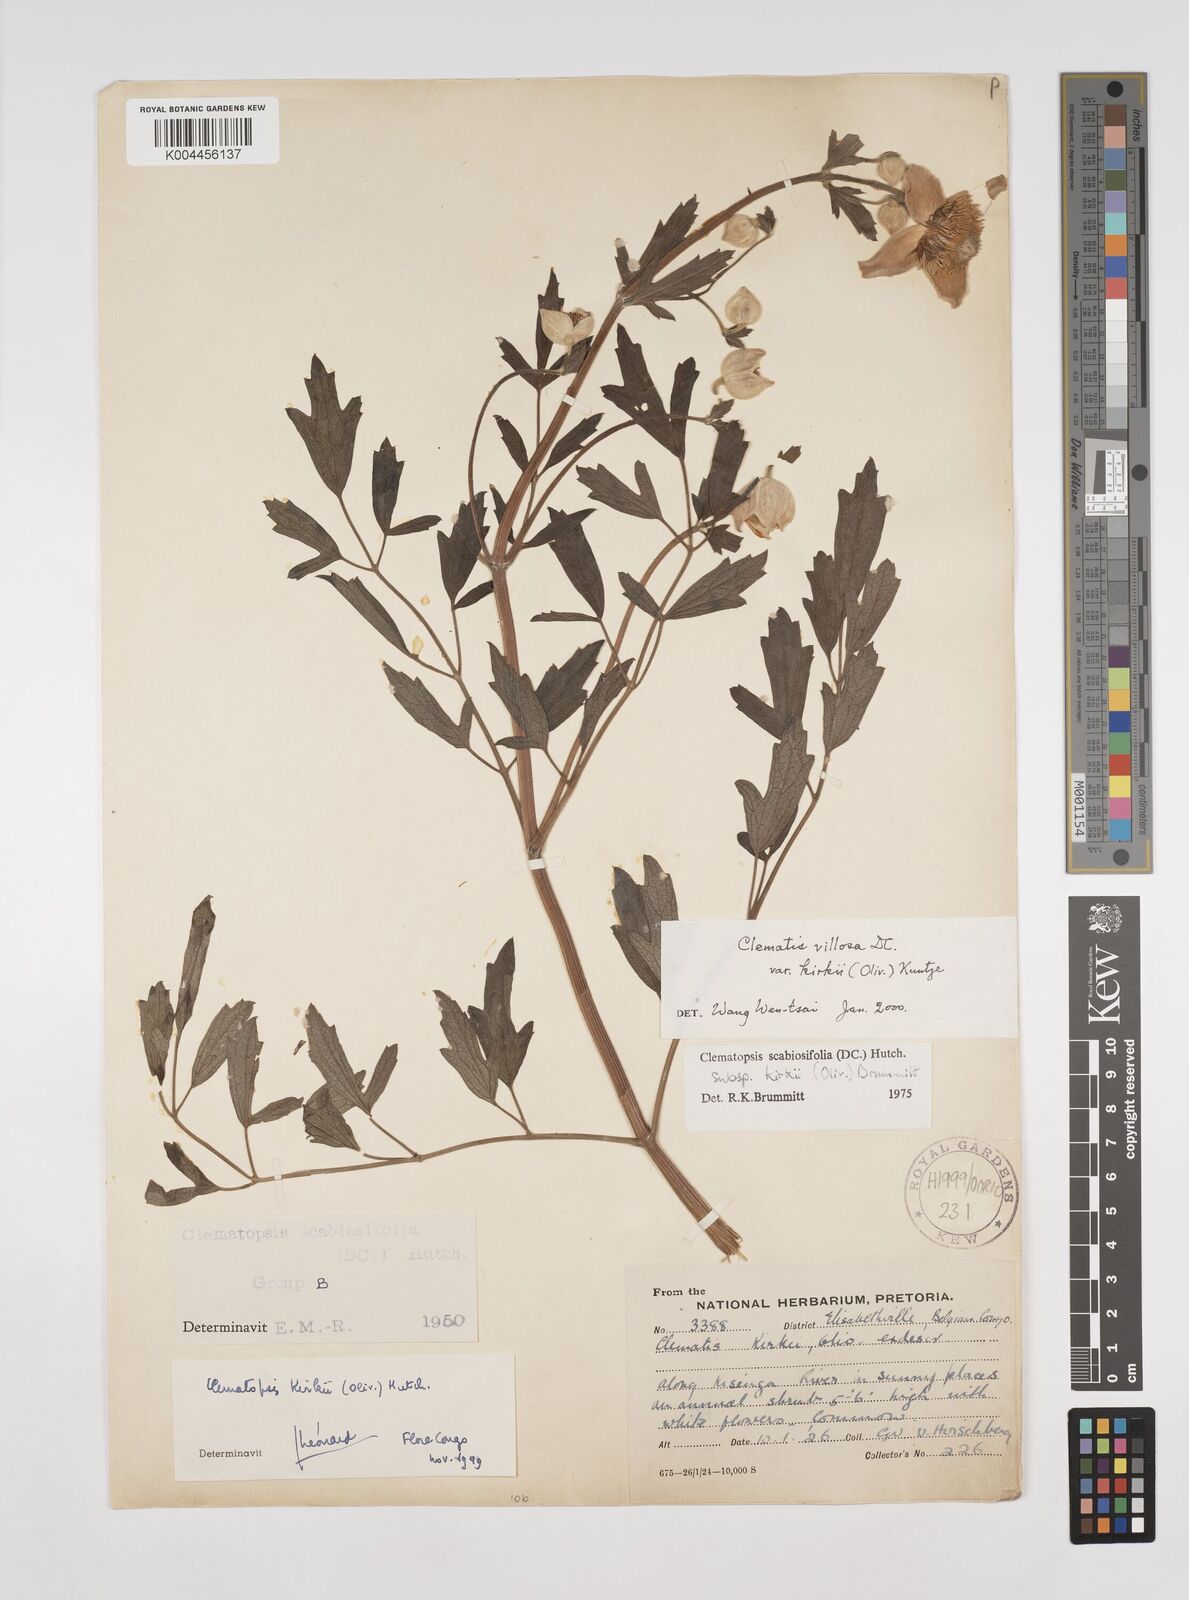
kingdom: Plantae
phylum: Tracheophyta
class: Magnoliopsida
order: Ranunculales
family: Ranunculaceae
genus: Clematis
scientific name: Clematis villosa
